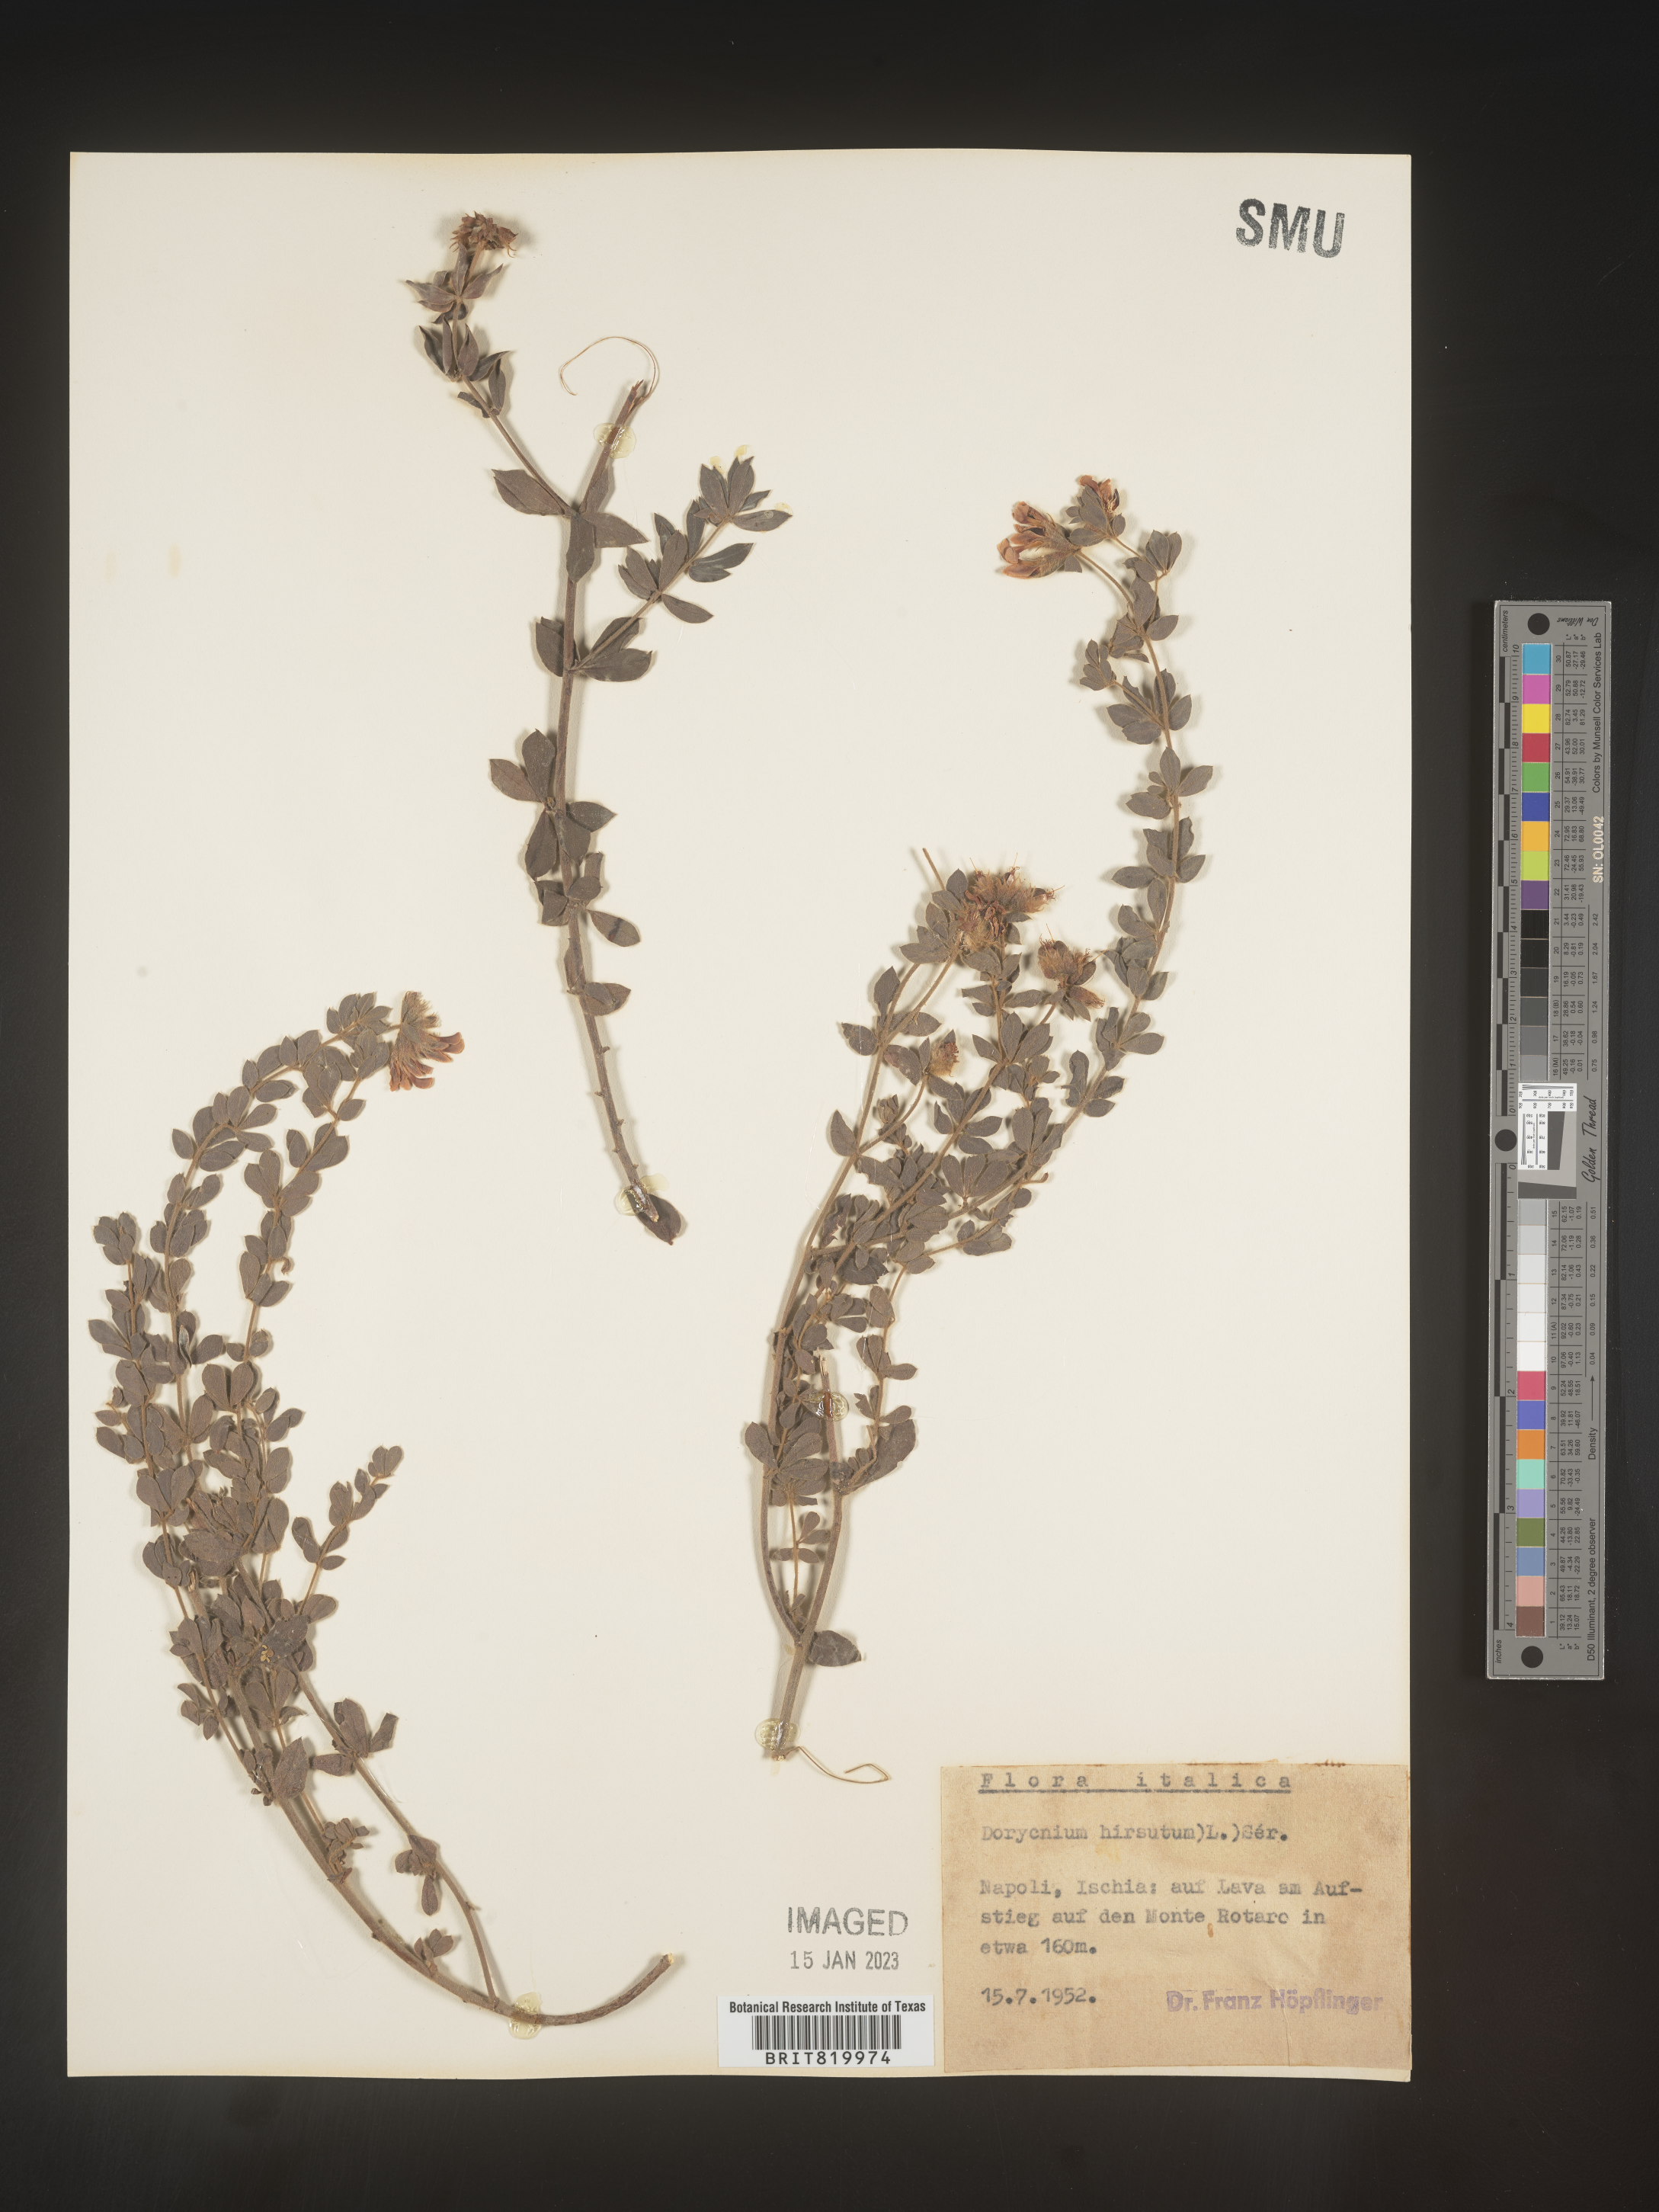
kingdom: Plantae
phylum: Tracheophyta
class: Magnoliopsida
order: Fabales
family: Fabaceae
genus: Lotus
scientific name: Lotus
